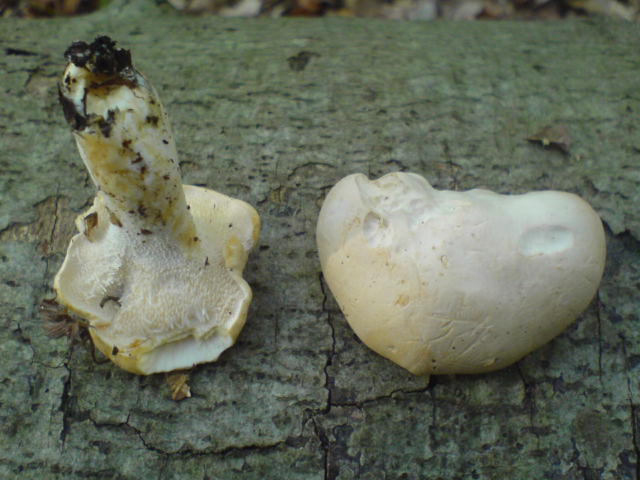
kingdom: Fungi
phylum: Basidiomycota
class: Agaricomycetes
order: Cantharellales
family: Hydnaceae
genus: Hydnum
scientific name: Hydnum repandum
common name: almindelig pigsvamp
